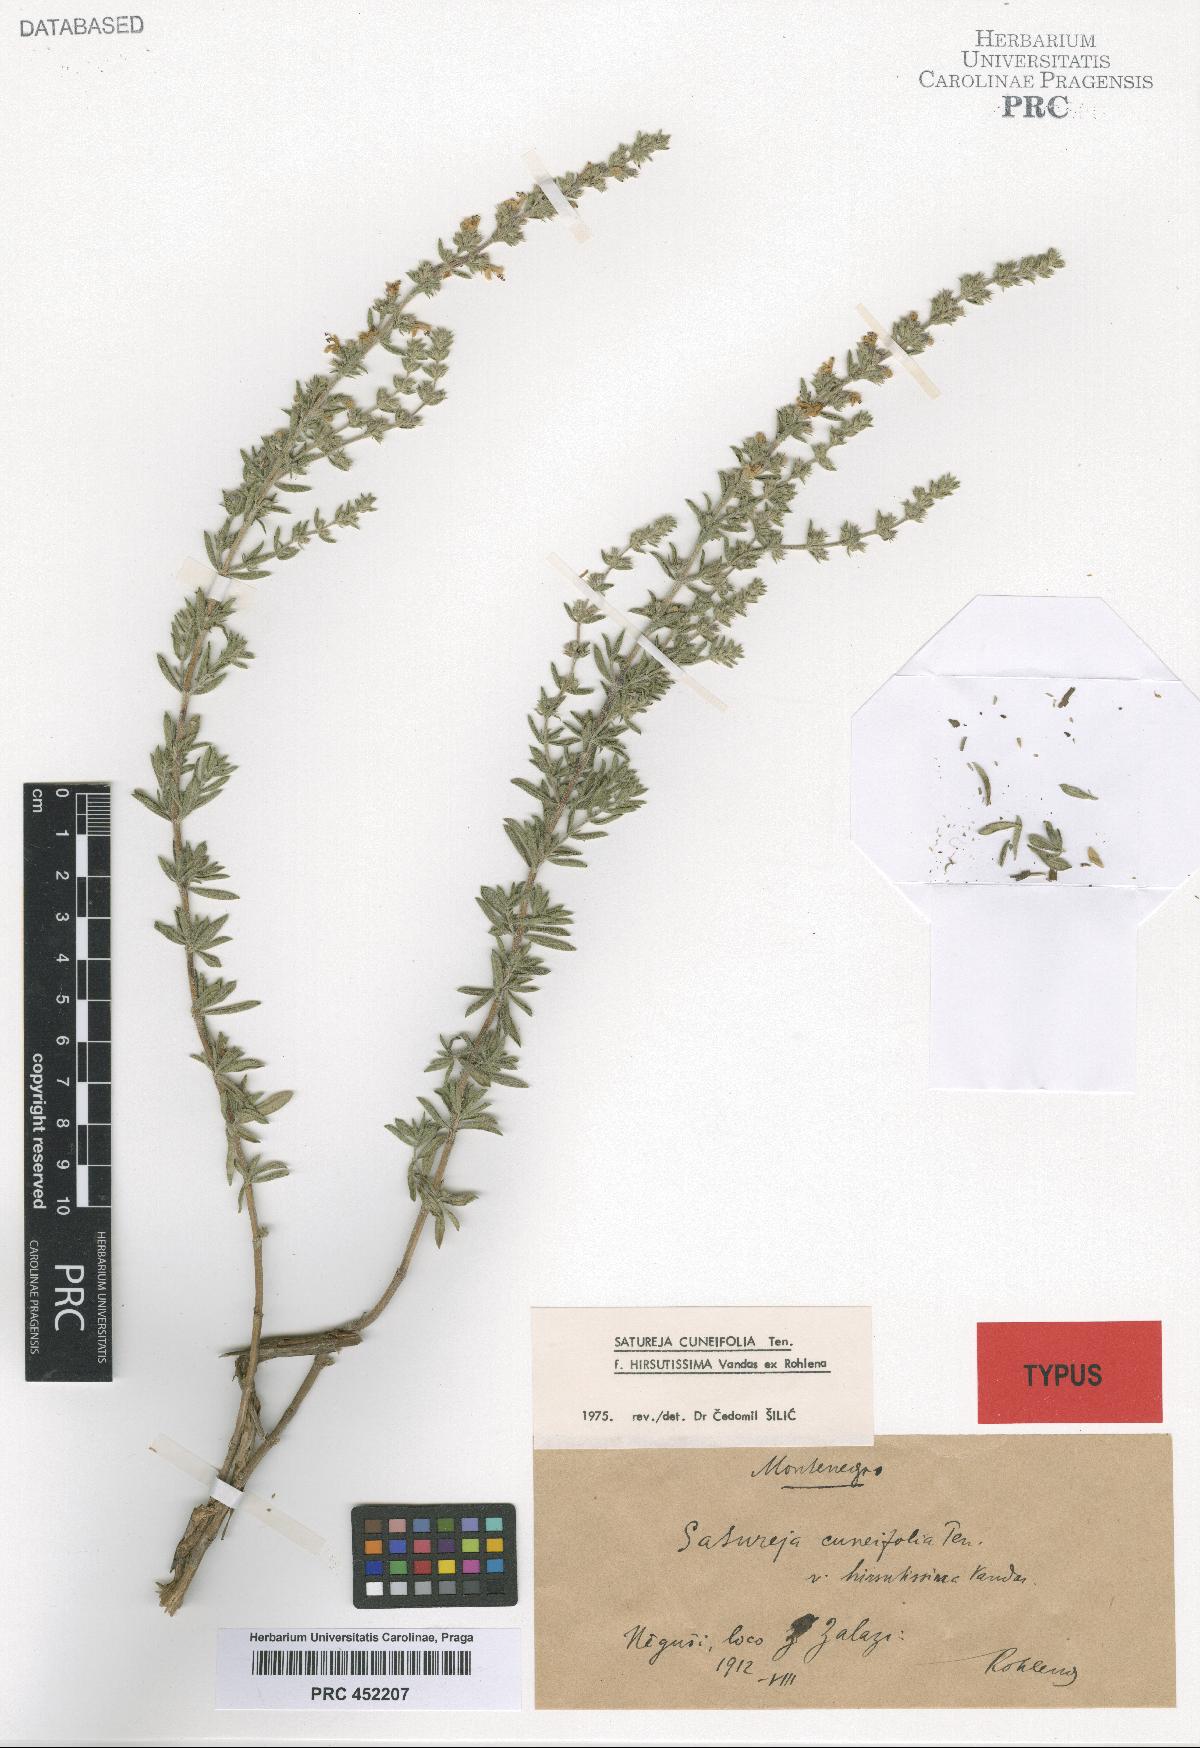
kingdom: Plantae
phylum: Tracheophyta
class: Magnoliopsida
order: Lamiales
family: Lamiaceae
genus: Satureja
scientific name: Satureja cuneifolia
